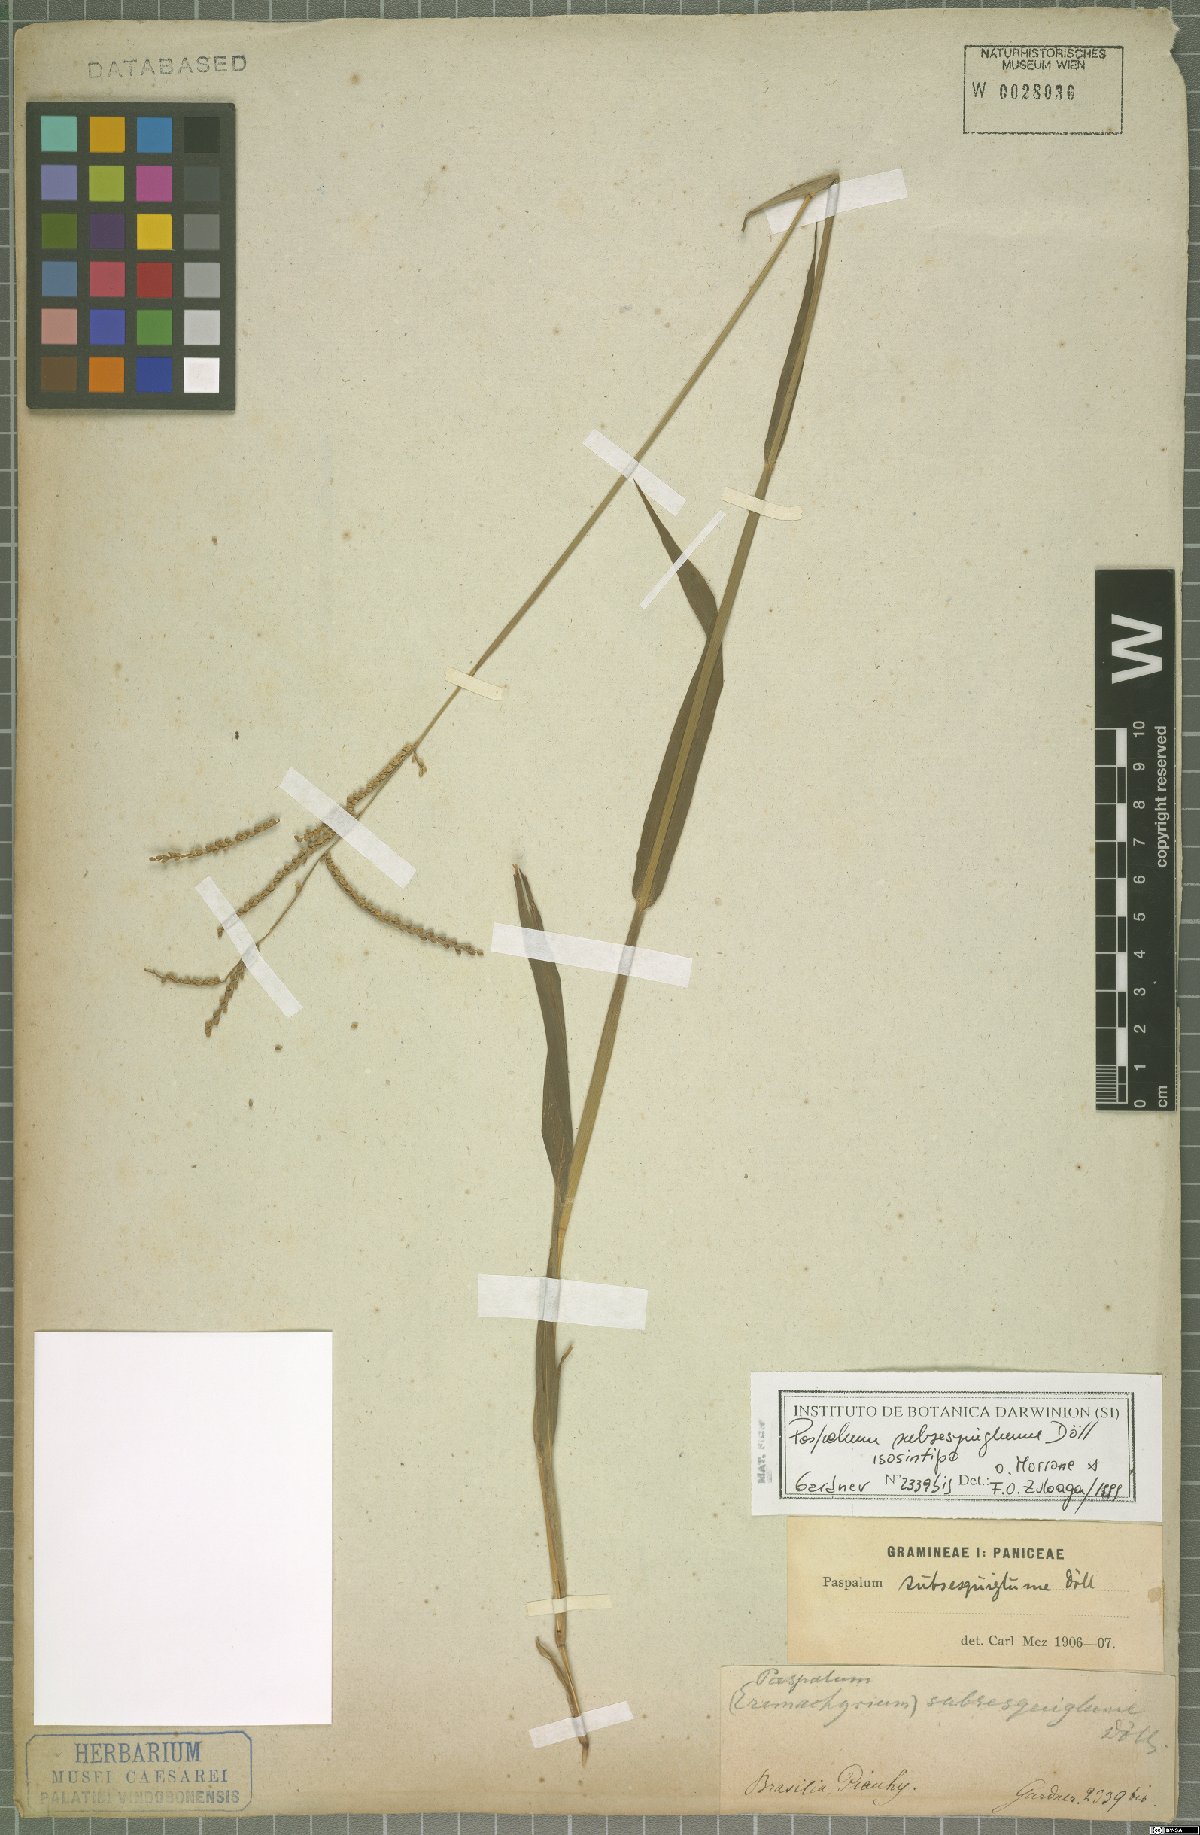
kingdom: Plantae
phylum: Tracheophyta
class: Liliopsida
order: Poales
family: Poaceae
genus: Paspalum
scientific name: Paspalum subsesquiglume
